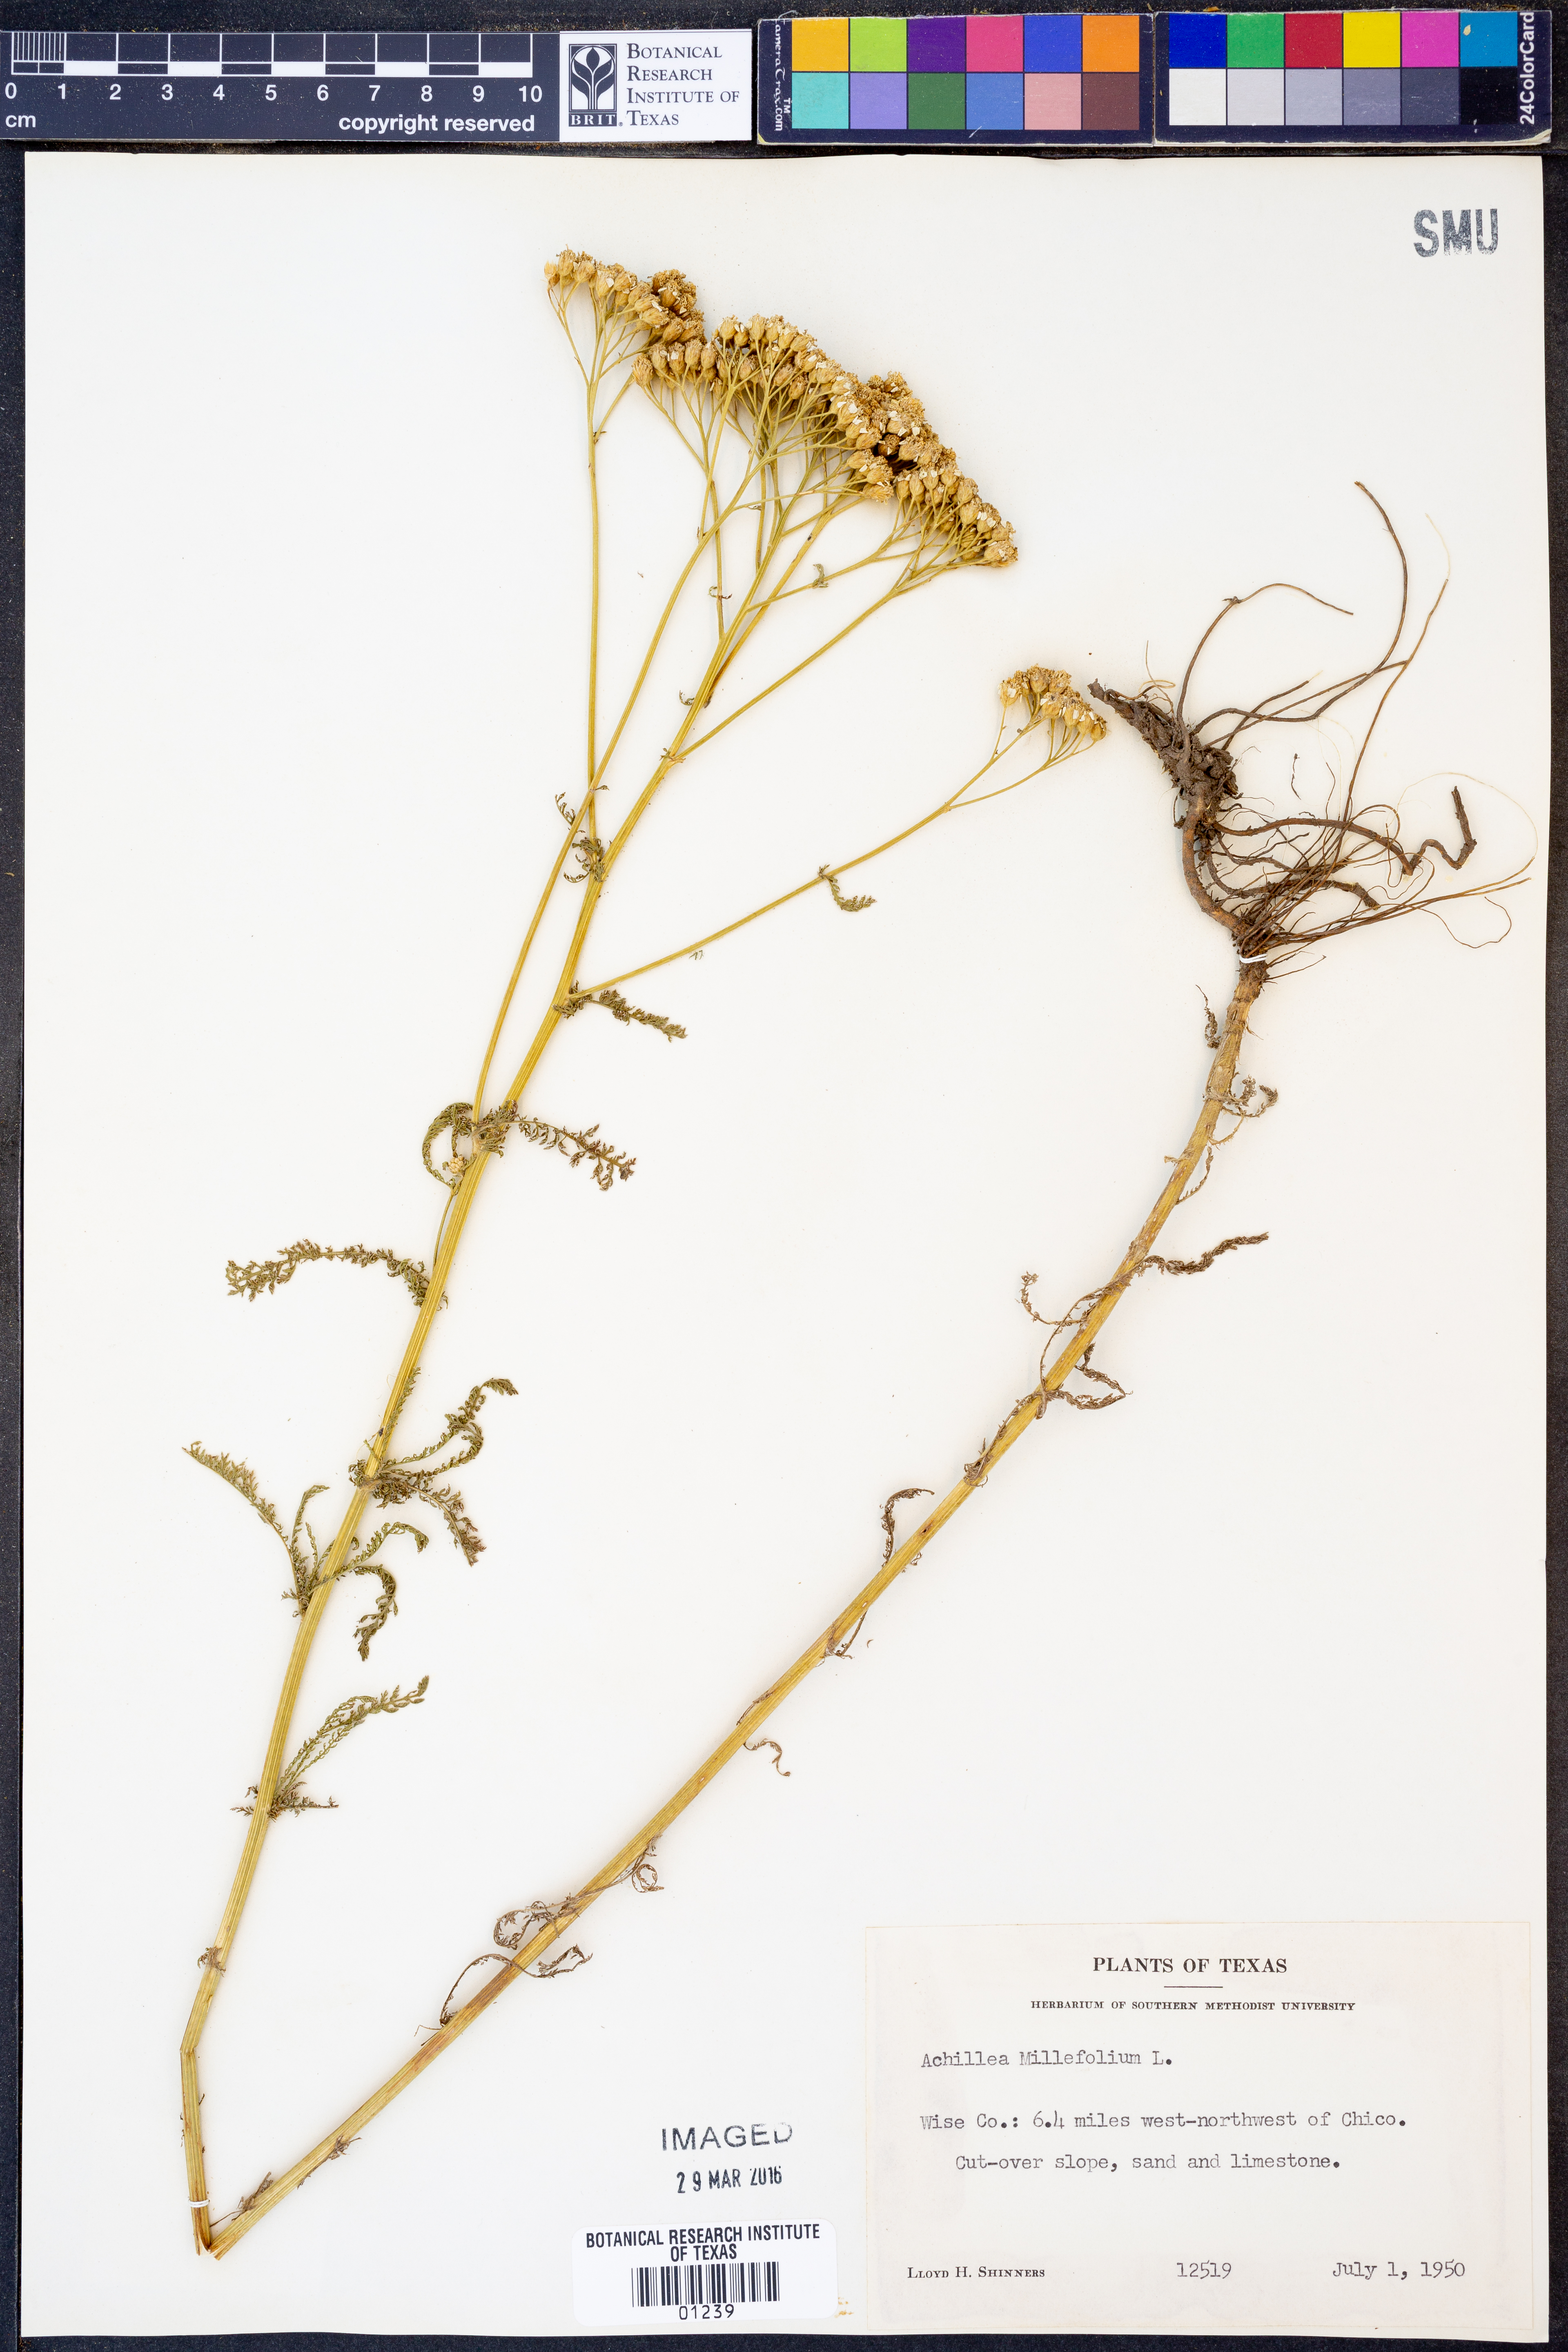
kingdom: Plantae
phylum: Tracheophyta
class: Magnoliopsida
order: Asterales
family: Asteraceae
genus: Achillea
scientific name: Achillea millefolium
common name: Yarrow
